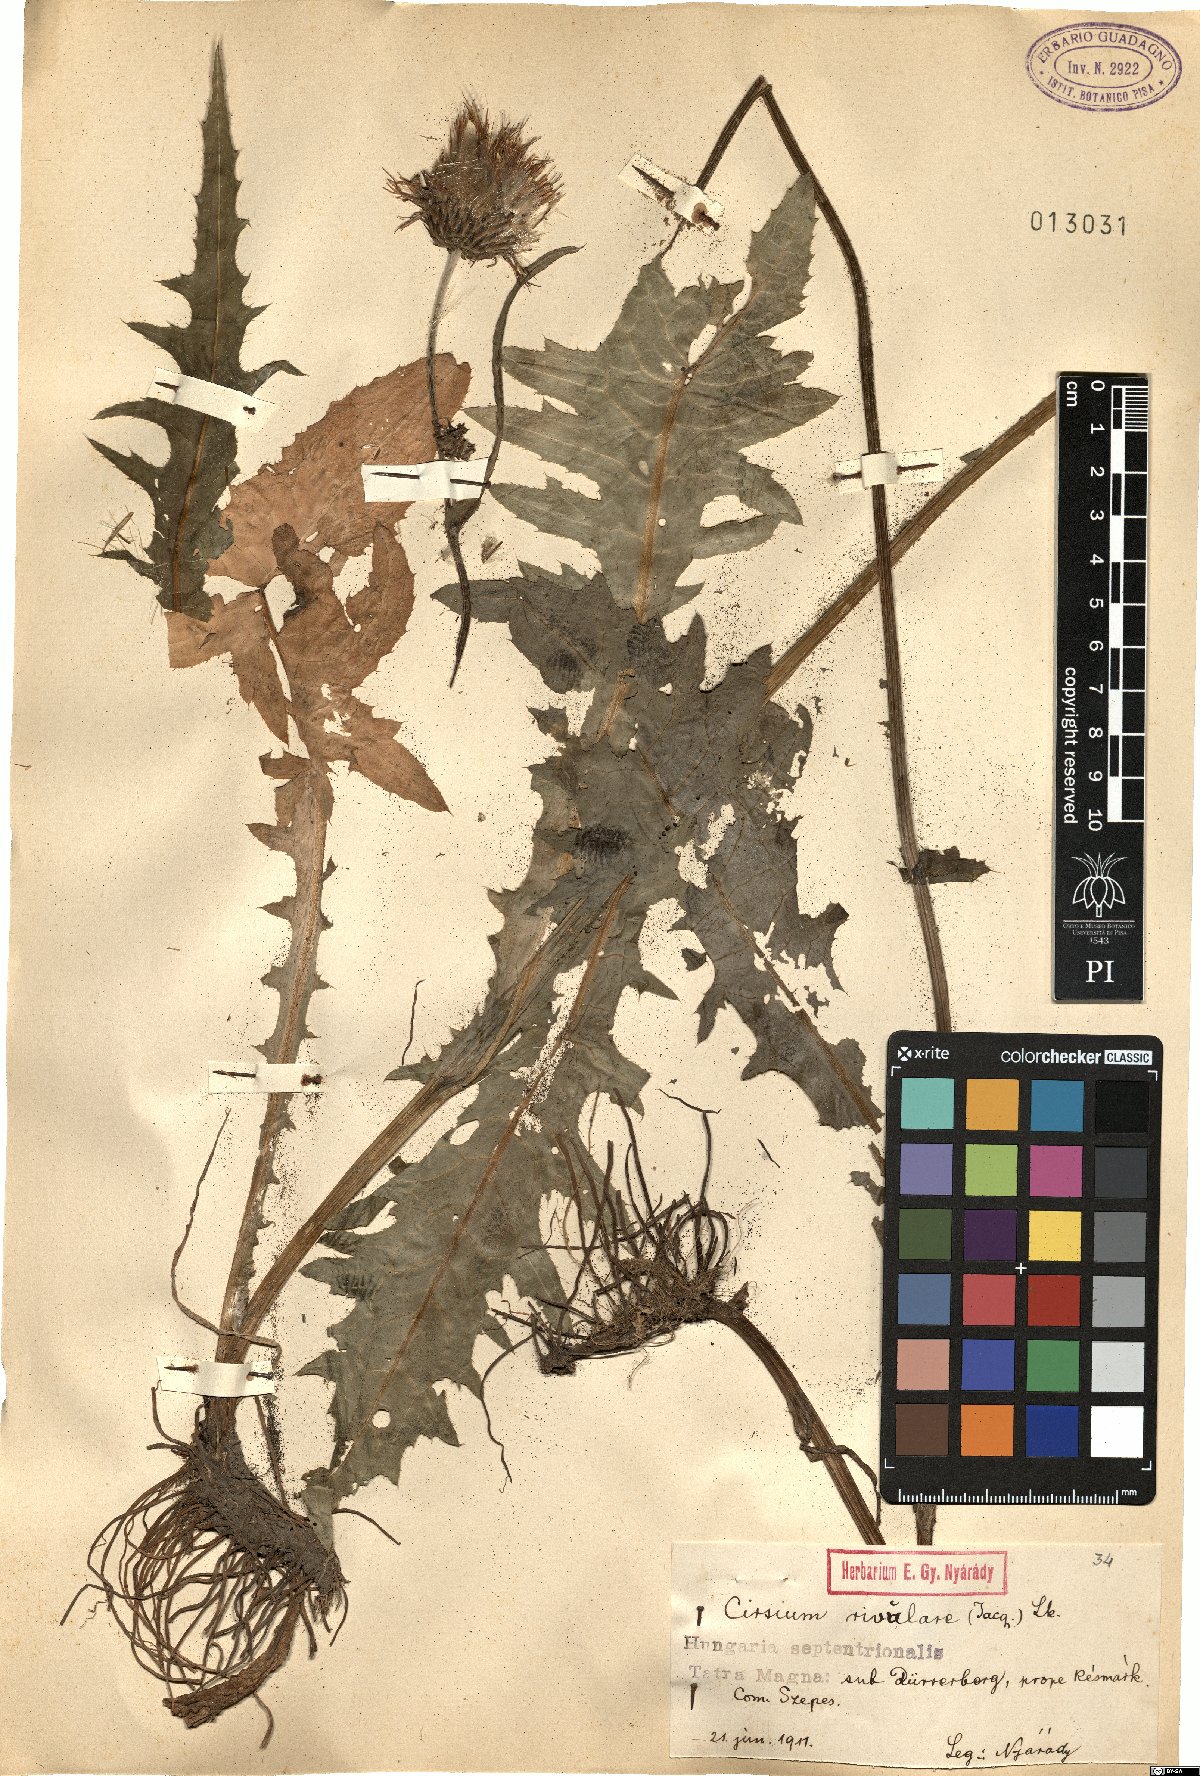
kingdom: Plantae
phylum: Tracheophyta
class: Magnoliopsida
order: Asterales
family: Asteraceae
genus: Cirsium
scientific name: Cirsium rivulare
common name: Brook thistle
